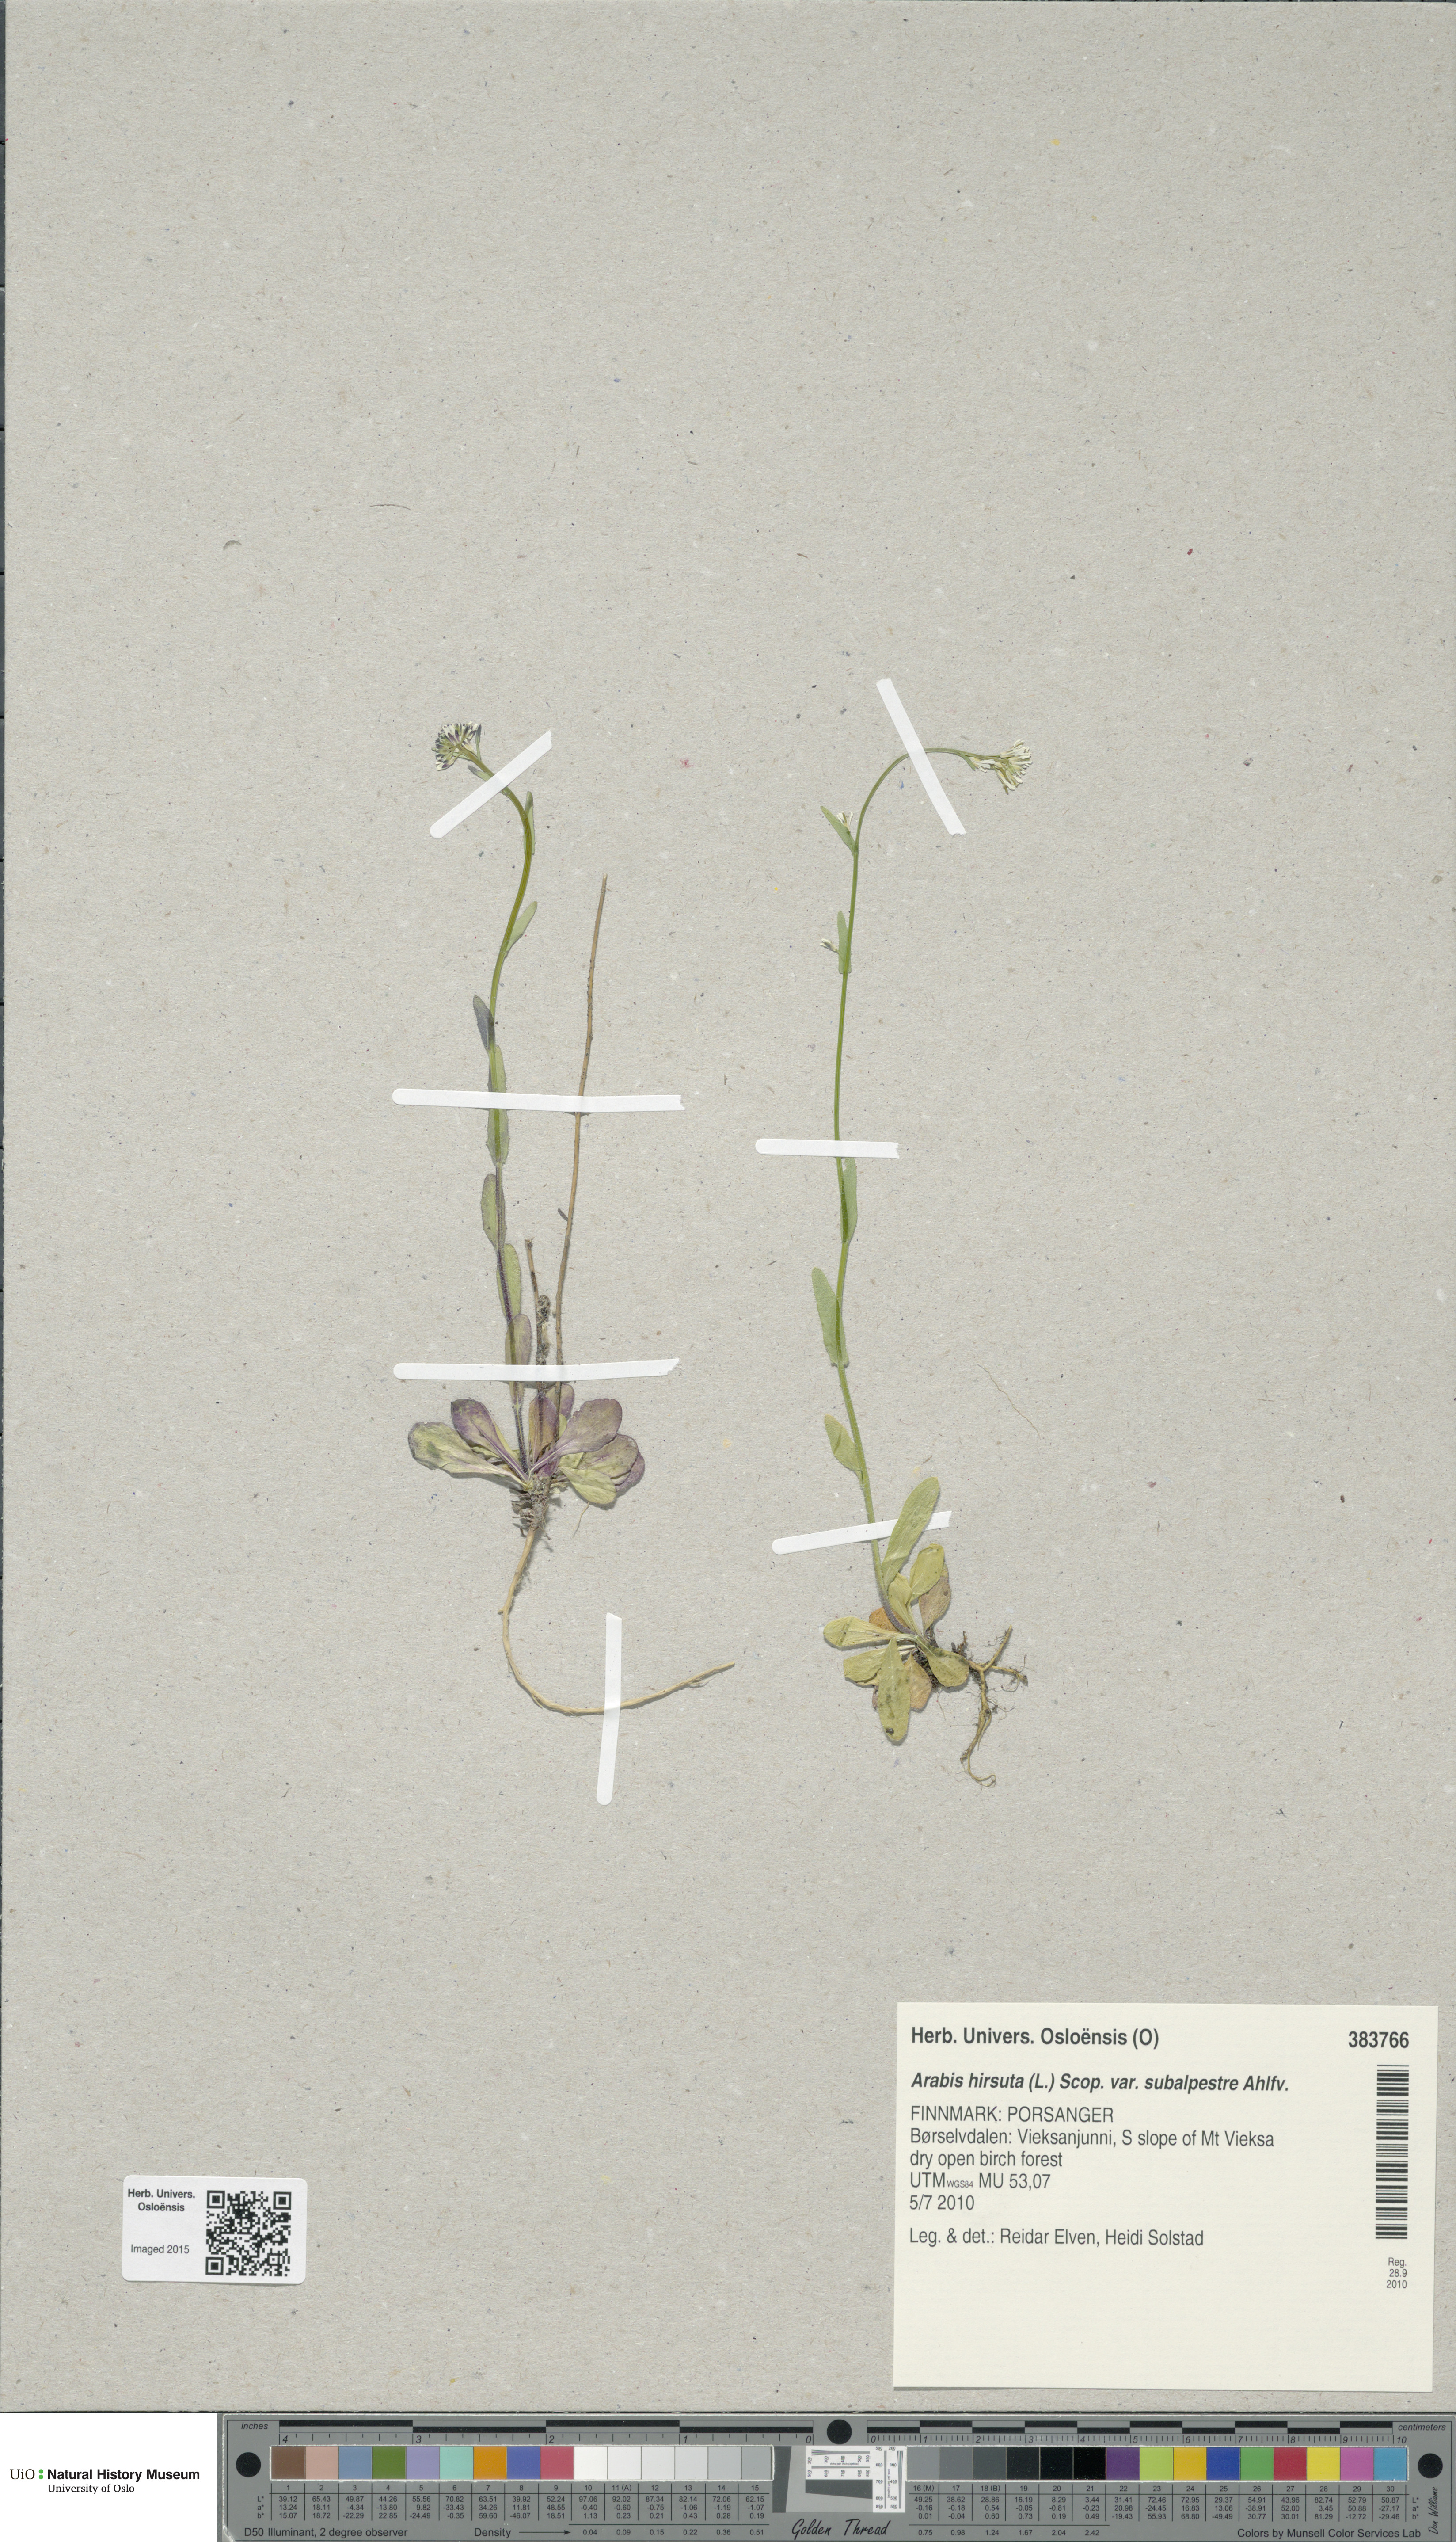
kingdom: Plantae
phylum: Tracheophyta
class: Magnoliopsida
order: Brassicales
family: Brassicaceae
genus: Arabis
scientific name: Arabis hirsuta
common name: Hairy rock-cress
